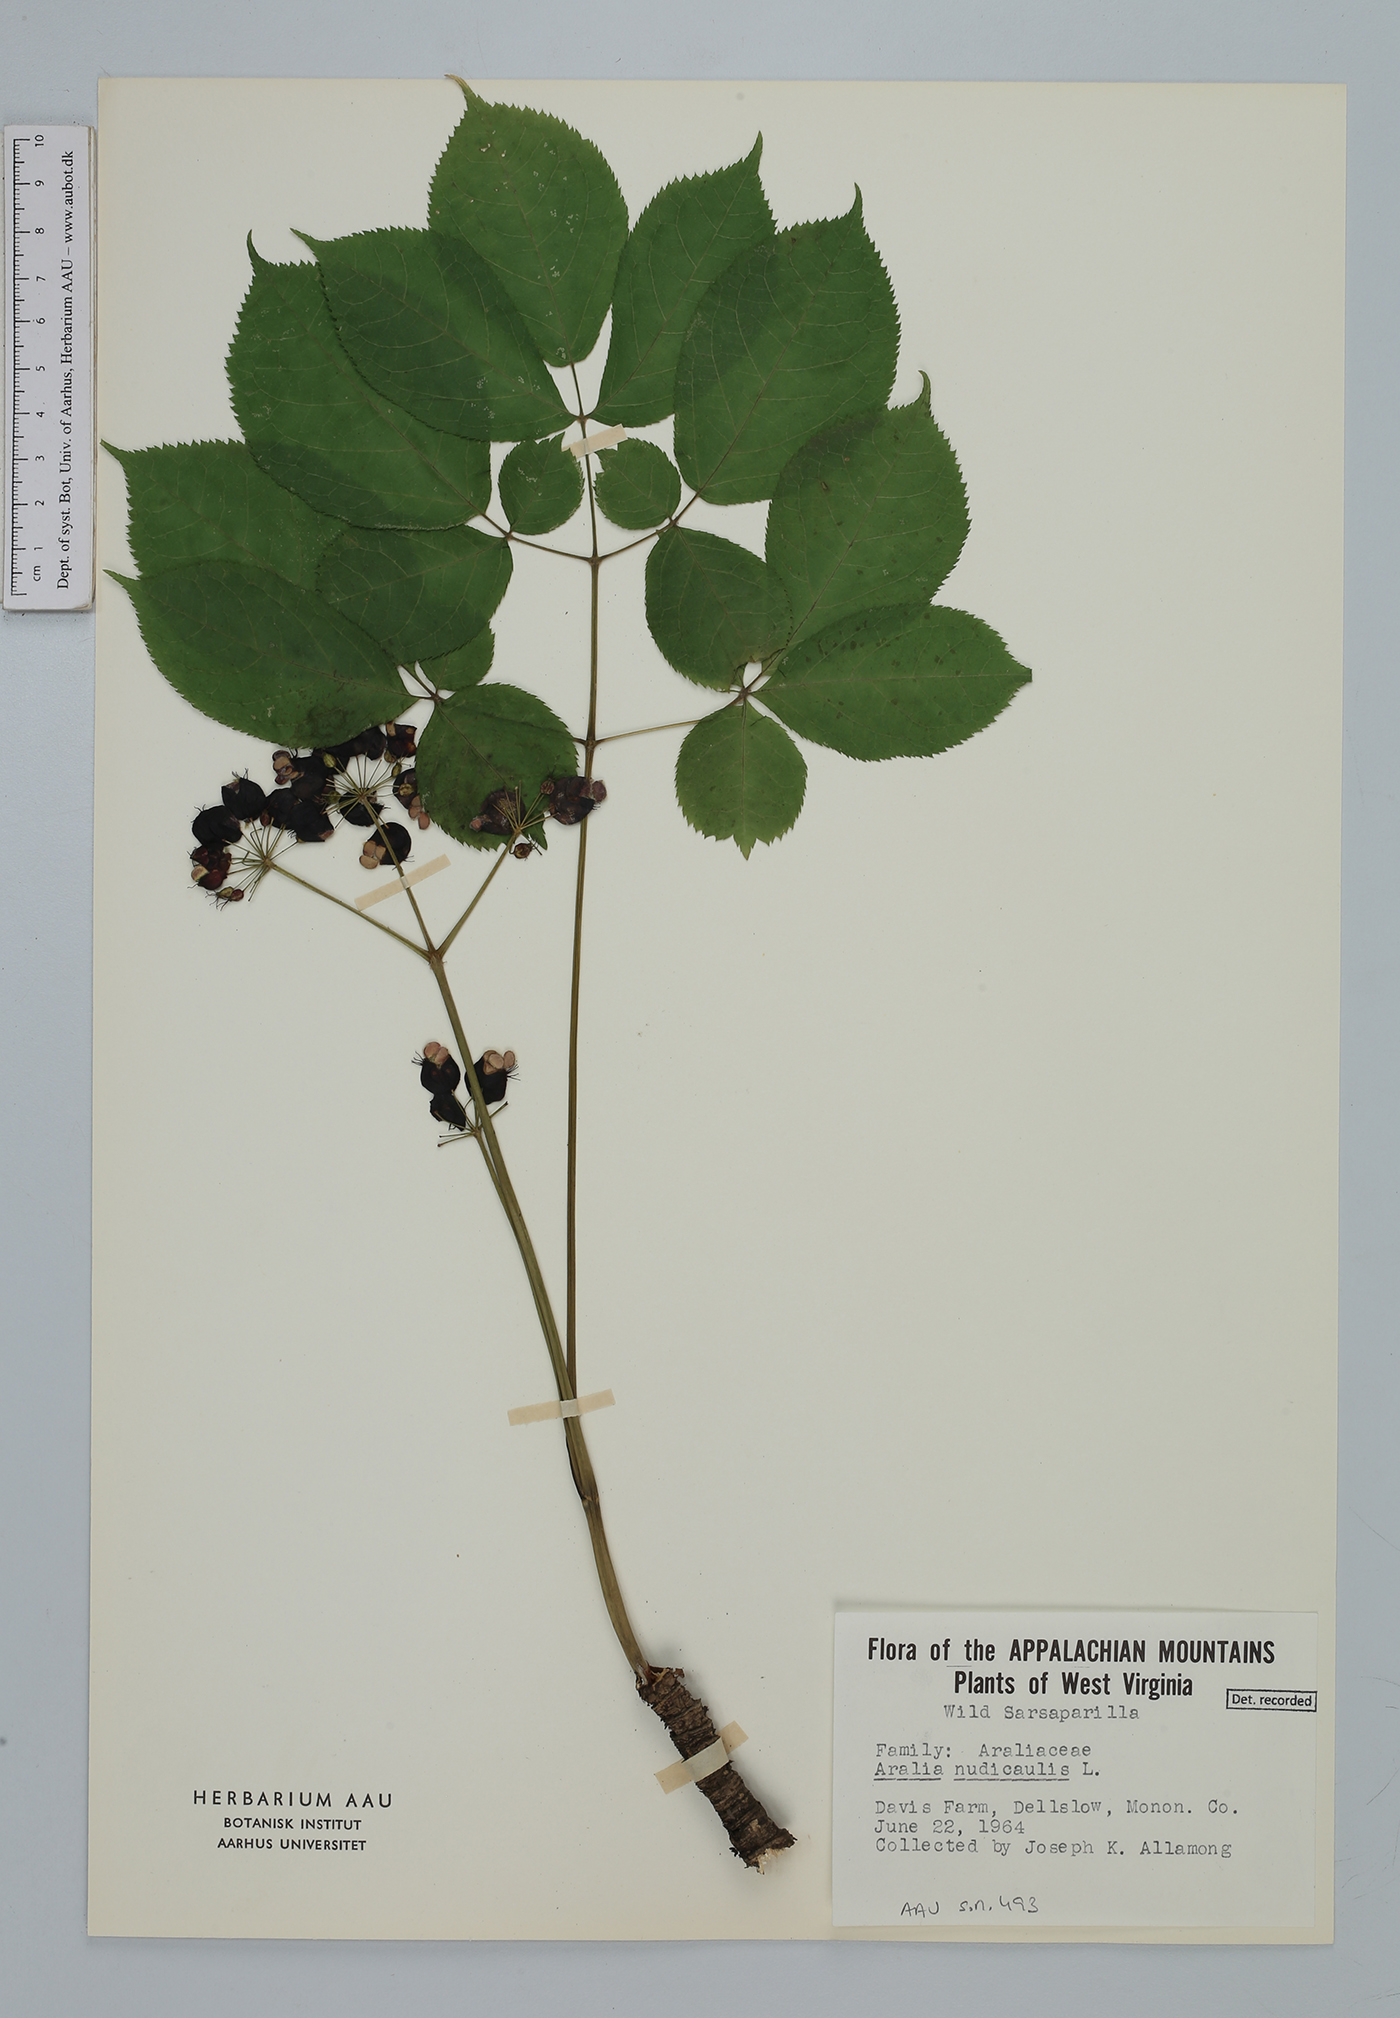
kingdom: Plantae
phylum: Tracheophyta
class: Magnoliopsida
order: Apiales
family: Araliaceae
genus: Aralia
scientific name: Aralia nudicaulis
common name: Wild sarsaparilla
